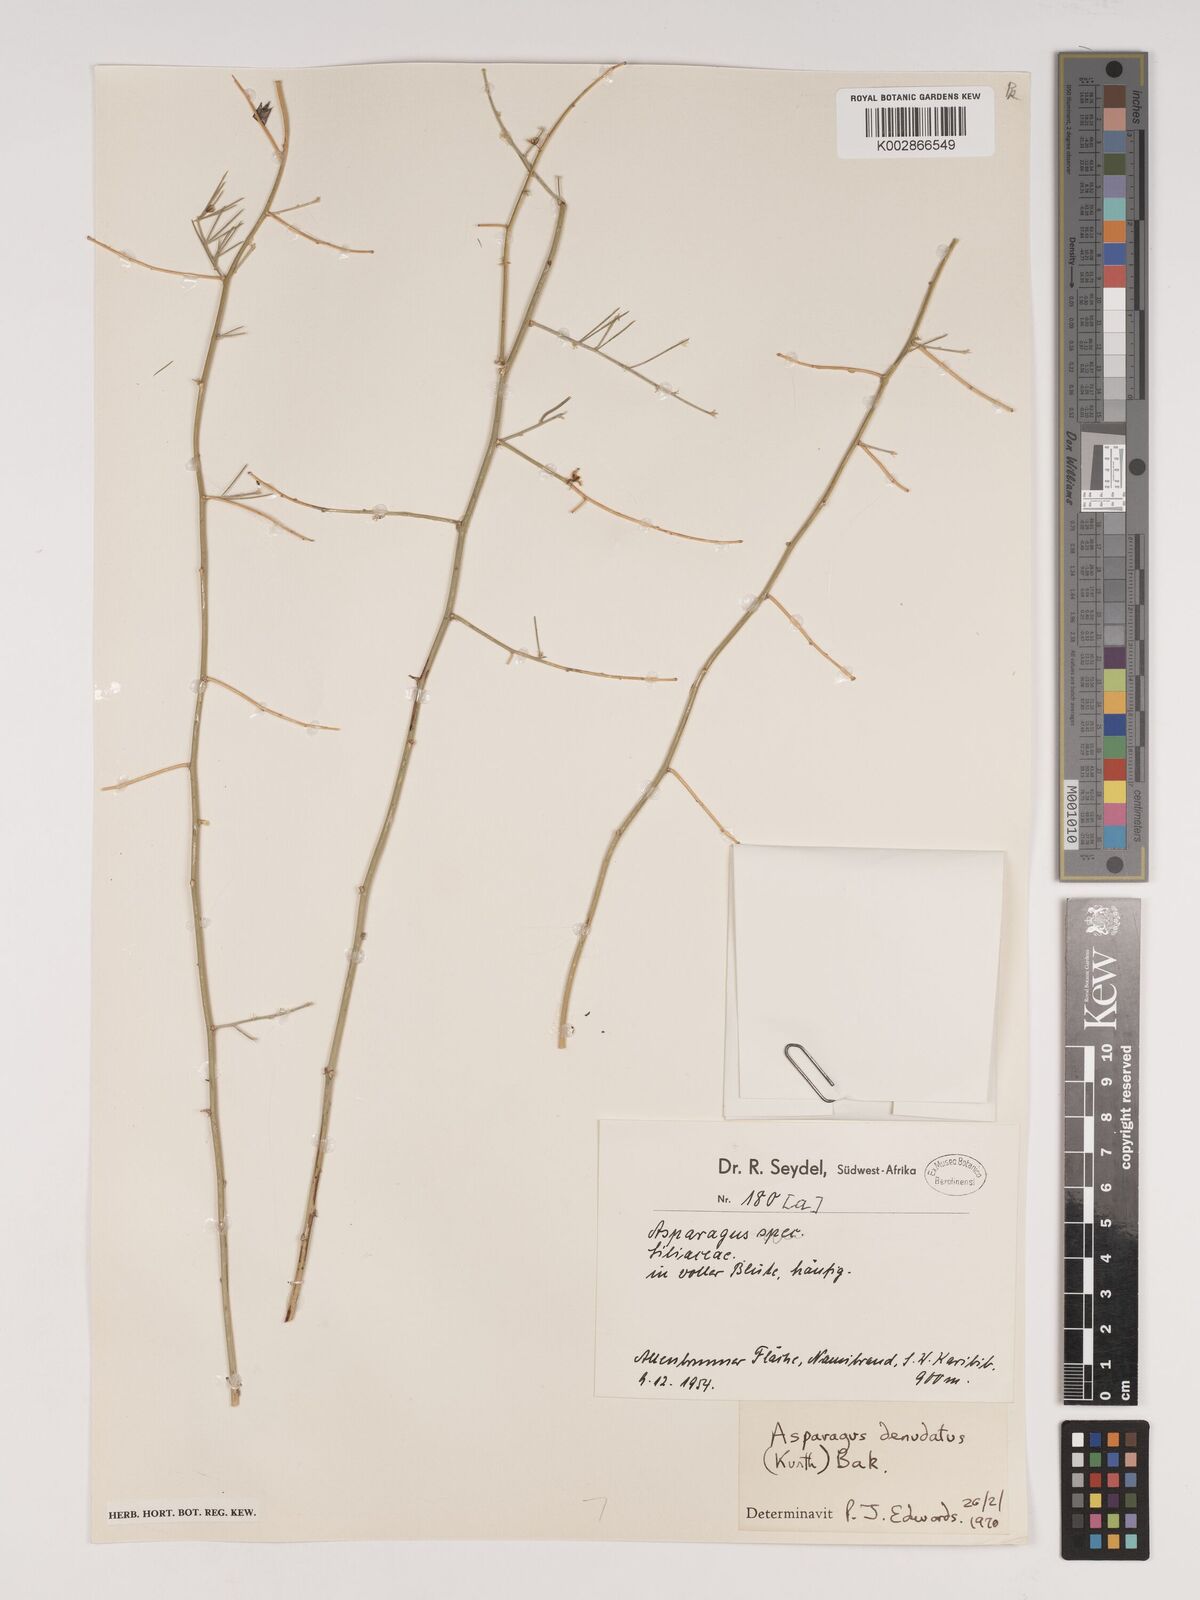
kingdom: Plantae
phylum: Tracheophyta
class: Liliopsida
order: Asparagales
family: Asparagaceae
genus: Asparagus
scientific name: Asparagus denudatus
